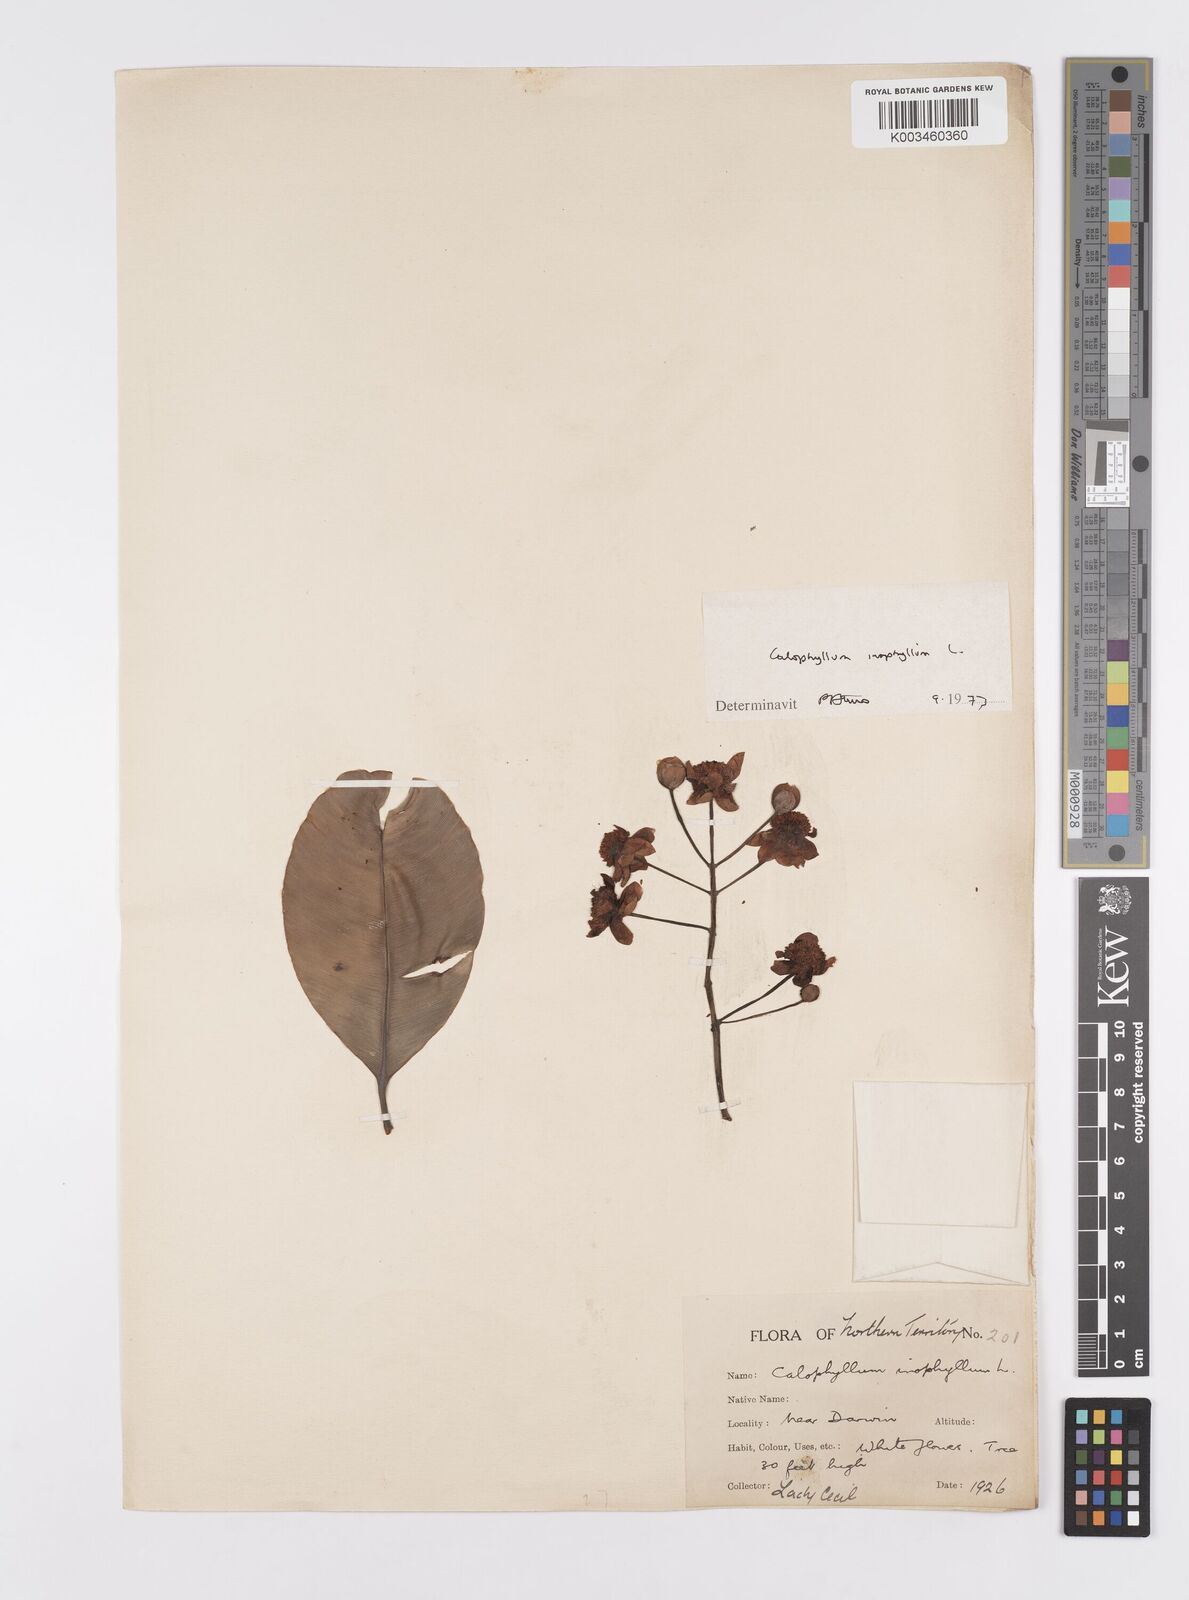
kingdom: Plantae
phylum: Tracheophyta
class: Magnoliopsida
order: Malpighiales
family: Calophyllaceae
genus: Calophyllum
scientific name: Calophyllum inophyllum
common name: Alexandrian laurel
